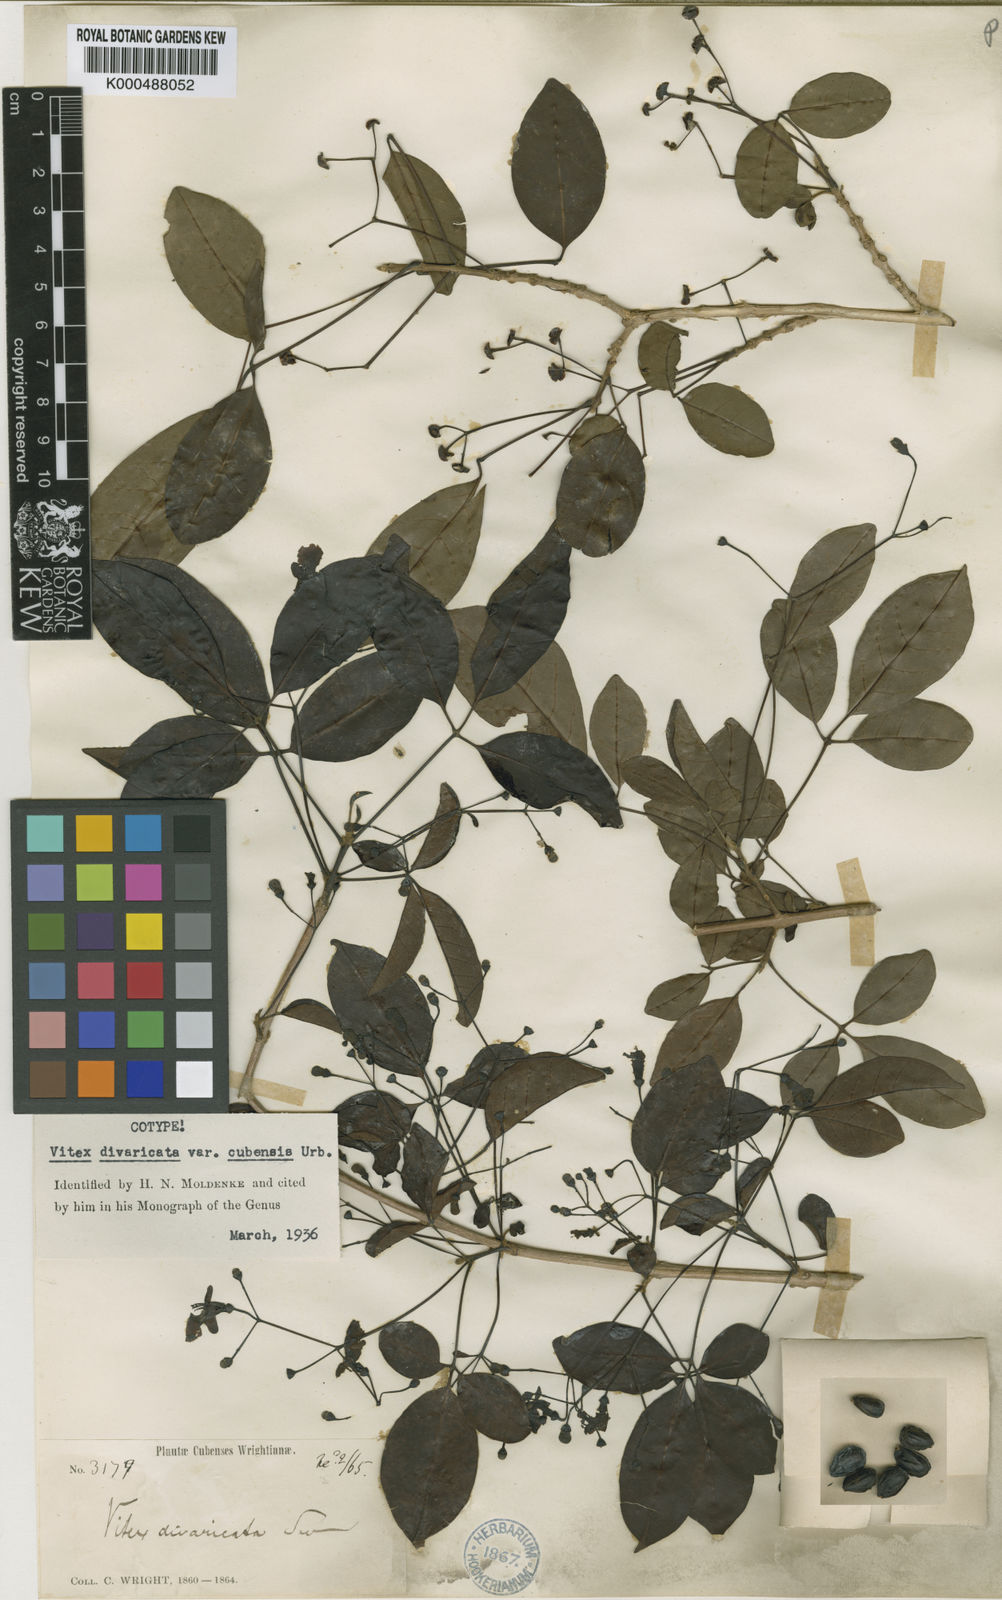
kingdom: Plantae
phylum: Tracheophyta
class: Magnoliopsida
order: Lamiales
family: Lamiaceae
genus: Vitex
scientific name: Vitex divaricata
